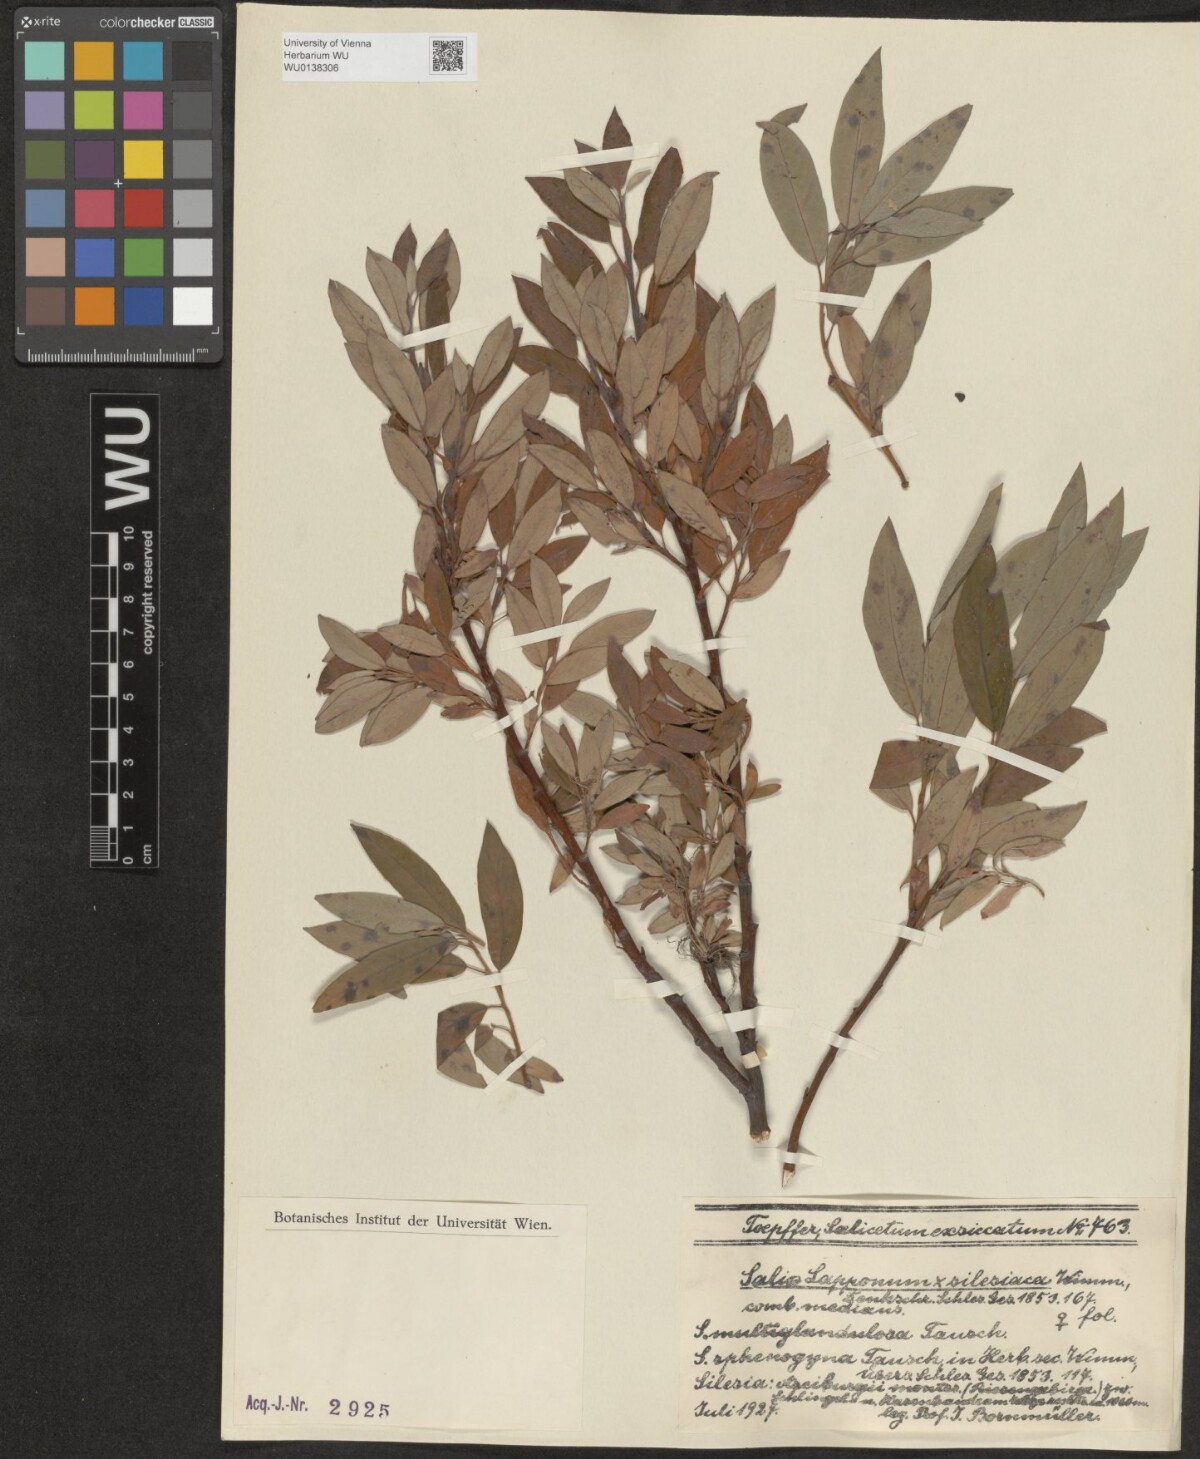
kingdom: Plantae
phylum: Tracheophyta
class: Magnoliopsida
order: Malpighiales
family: Salicaceae
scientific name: Salicaceae
